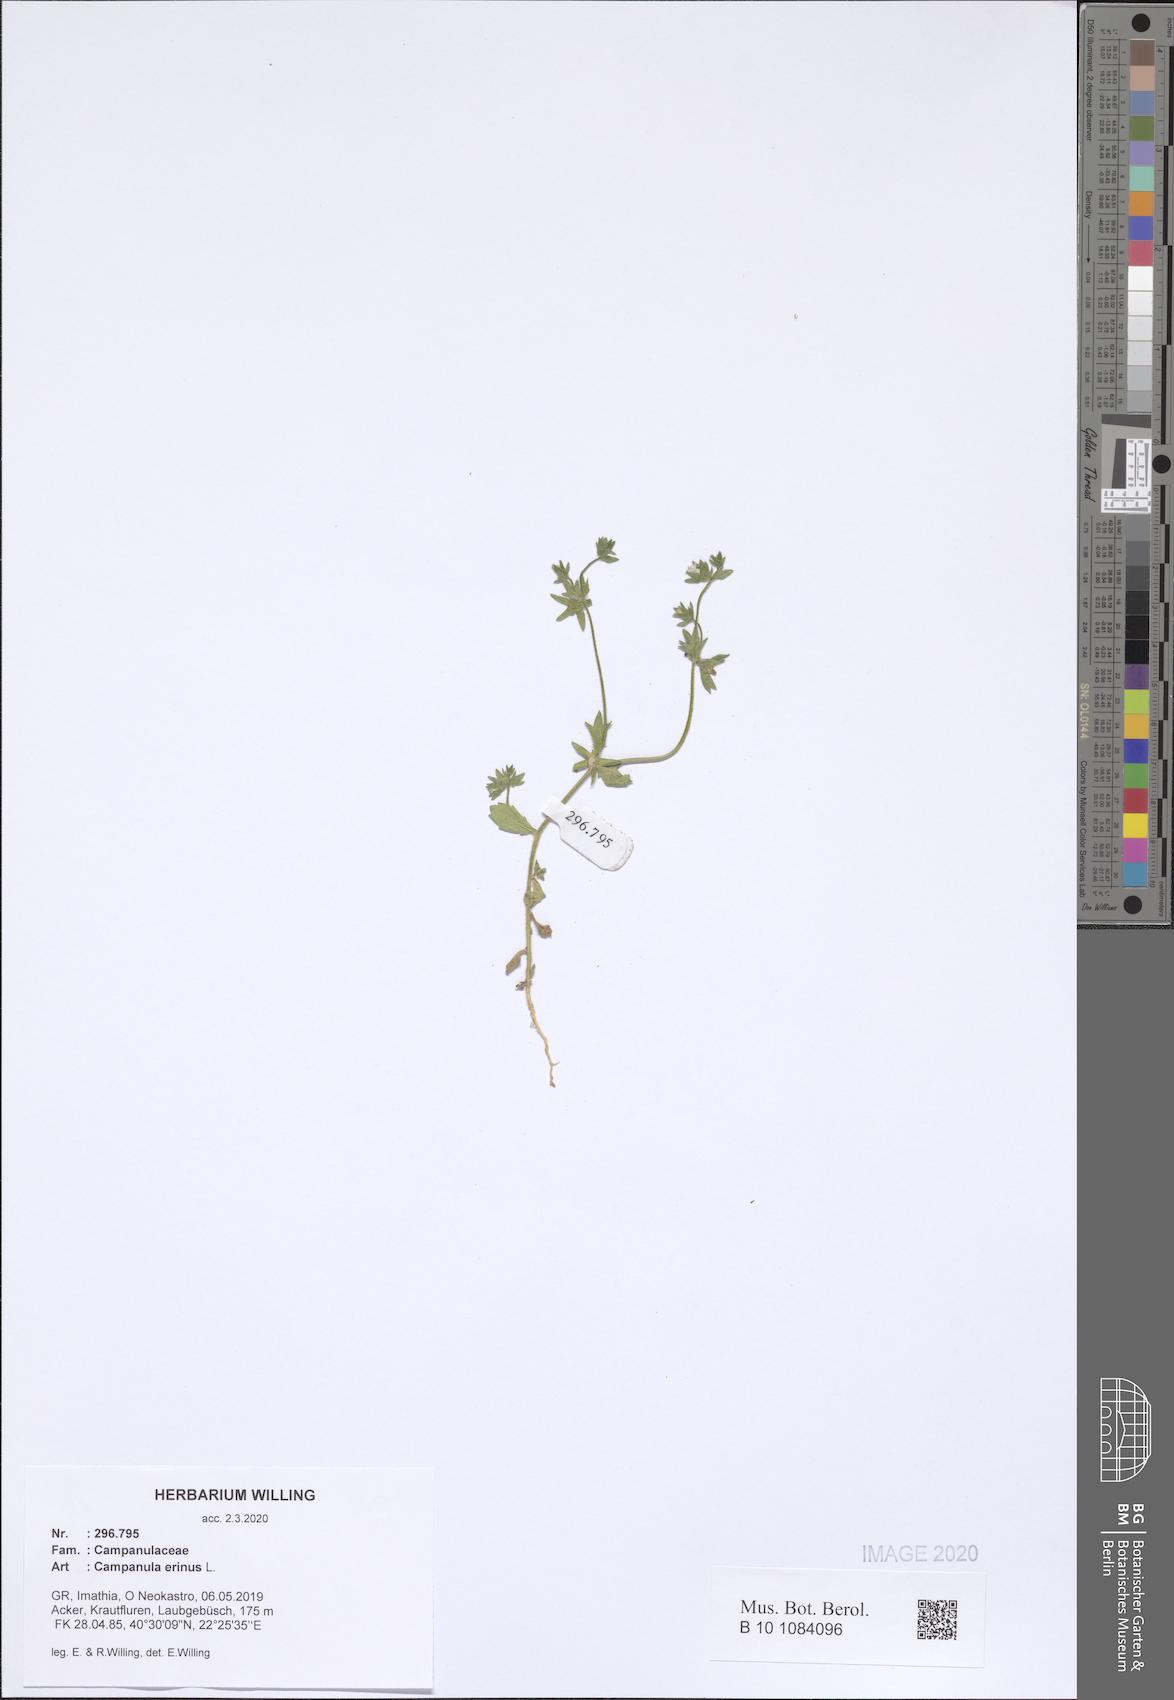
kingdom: Plantae
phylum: Tracheophyta
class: Magnoliopsida
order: Asterales
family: Campanulaceae
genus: Campanula
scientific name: Campanula erinus
